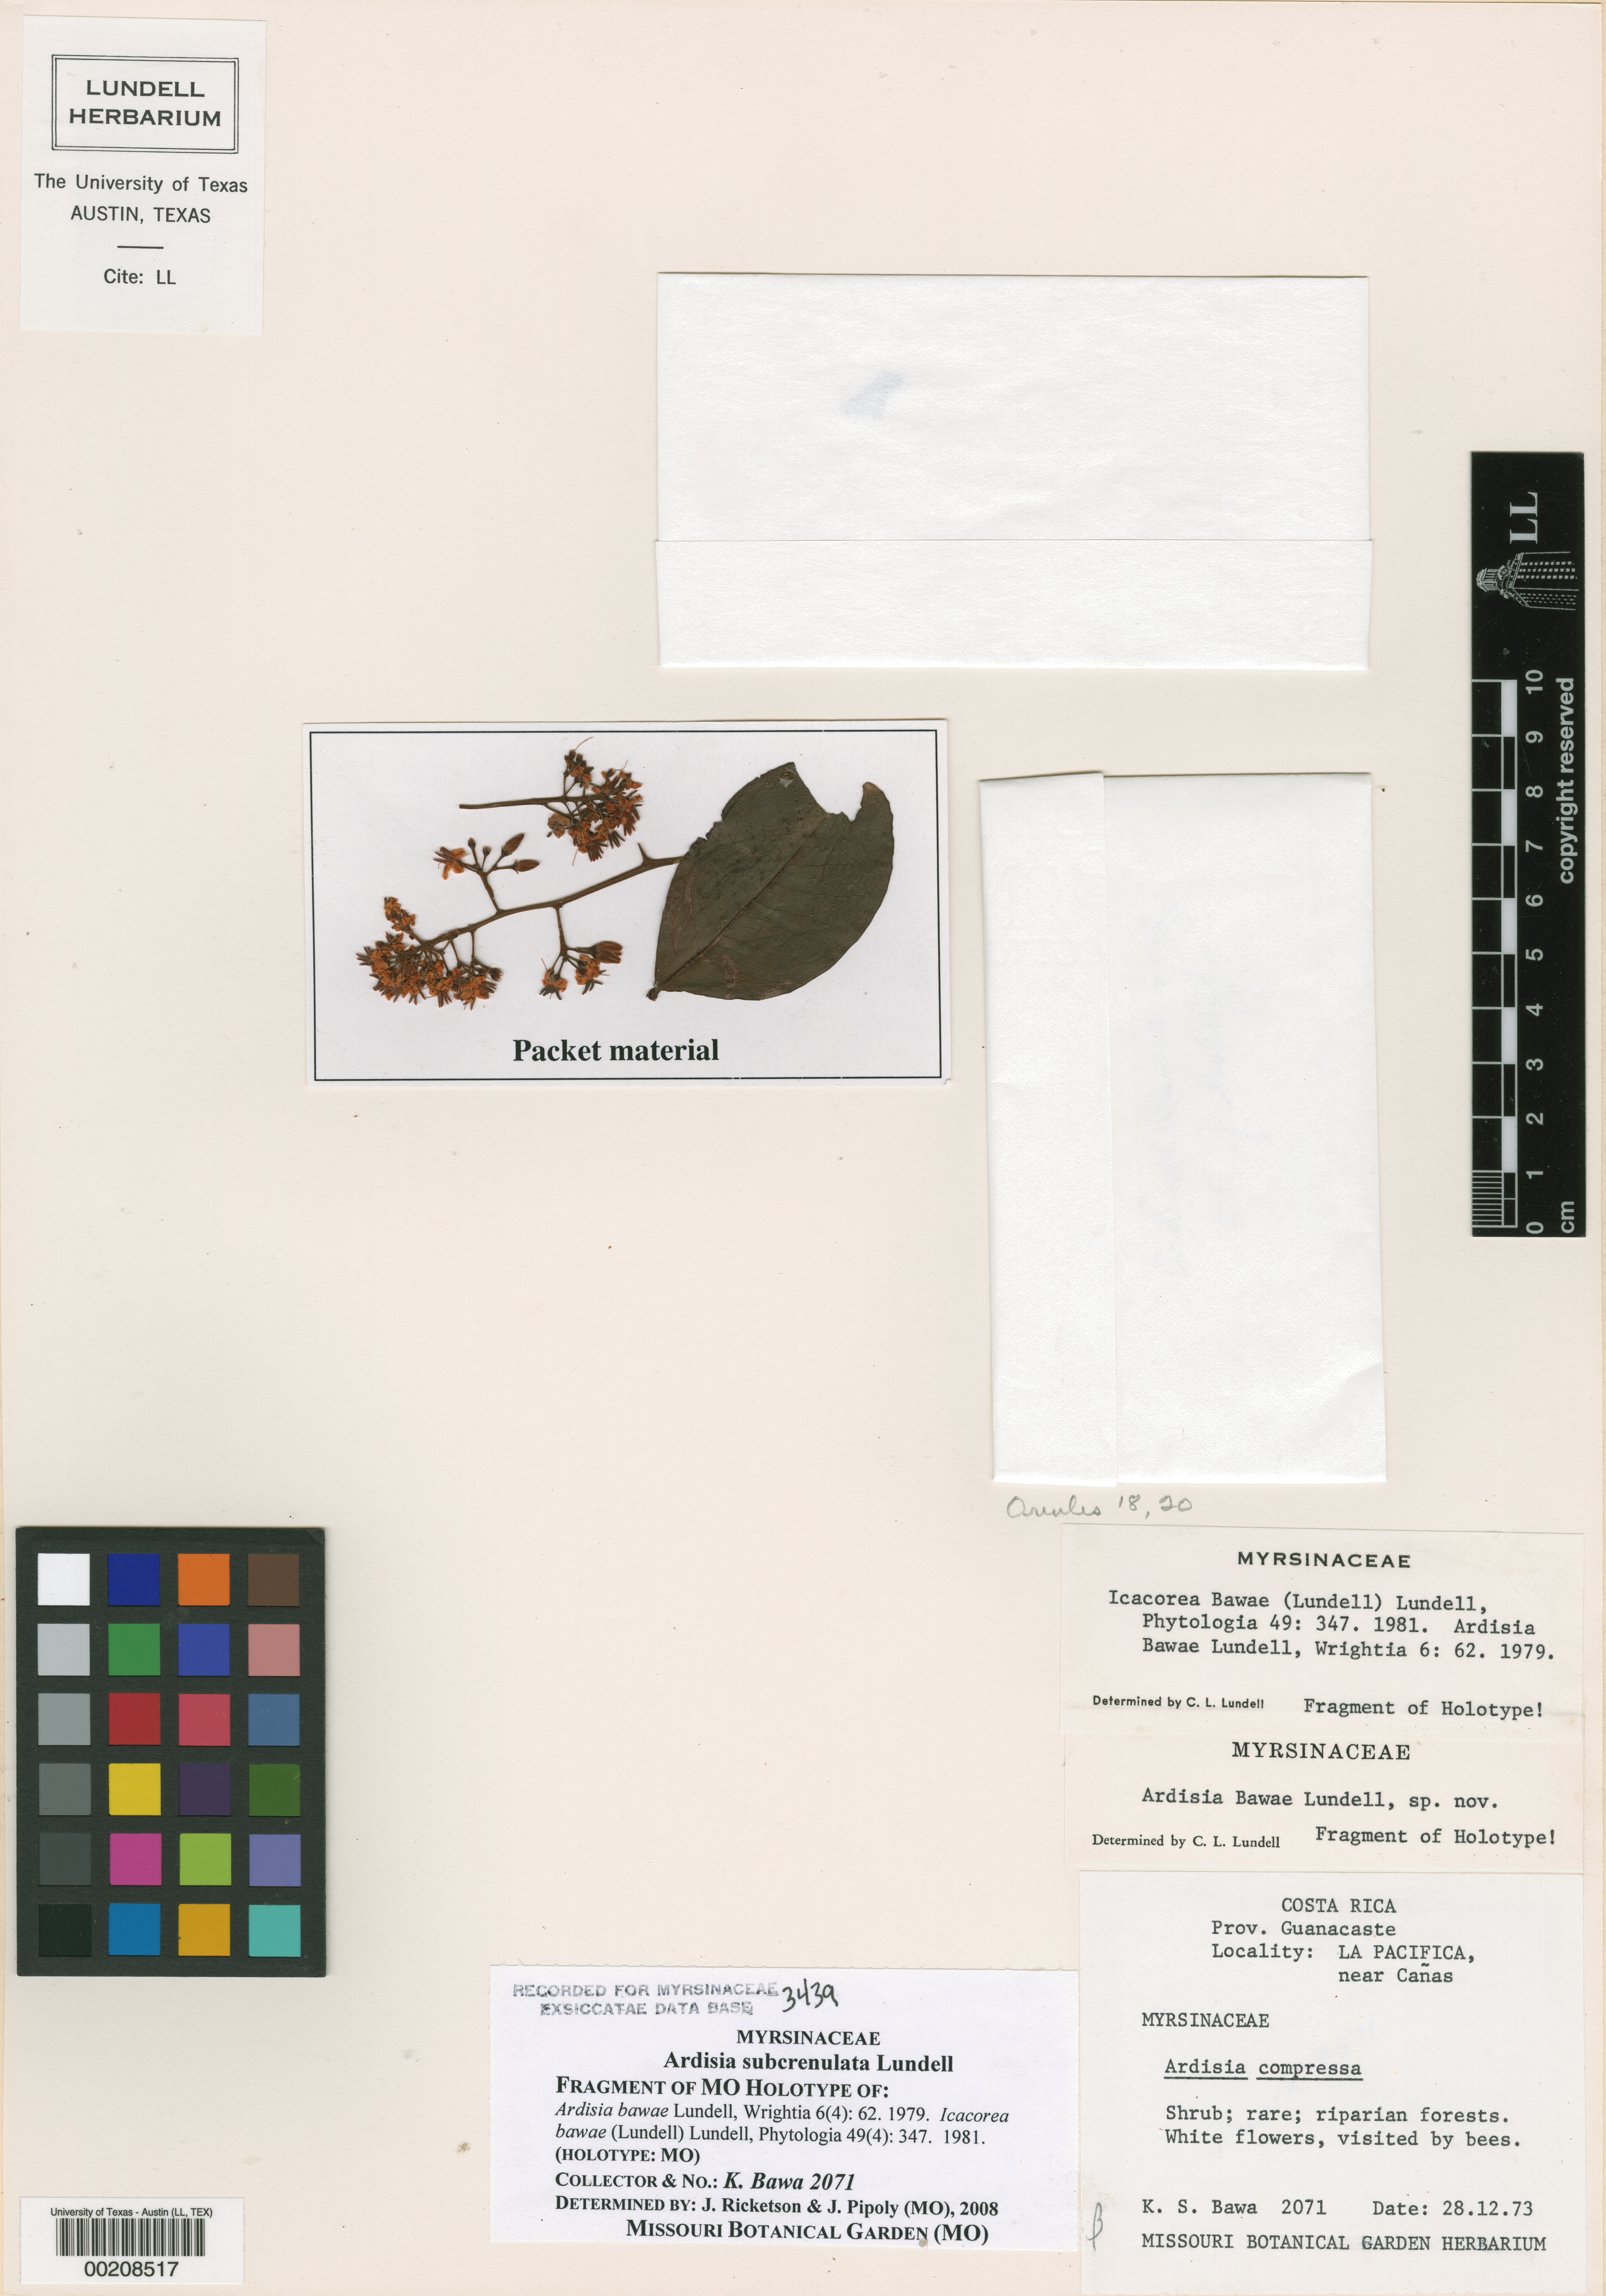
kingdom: Plantae
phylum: Tracheophyta
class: Magnoliopsida
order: Ericales
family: Primulaceae
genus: Ardisia
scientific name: Ardisia subcrenulata
